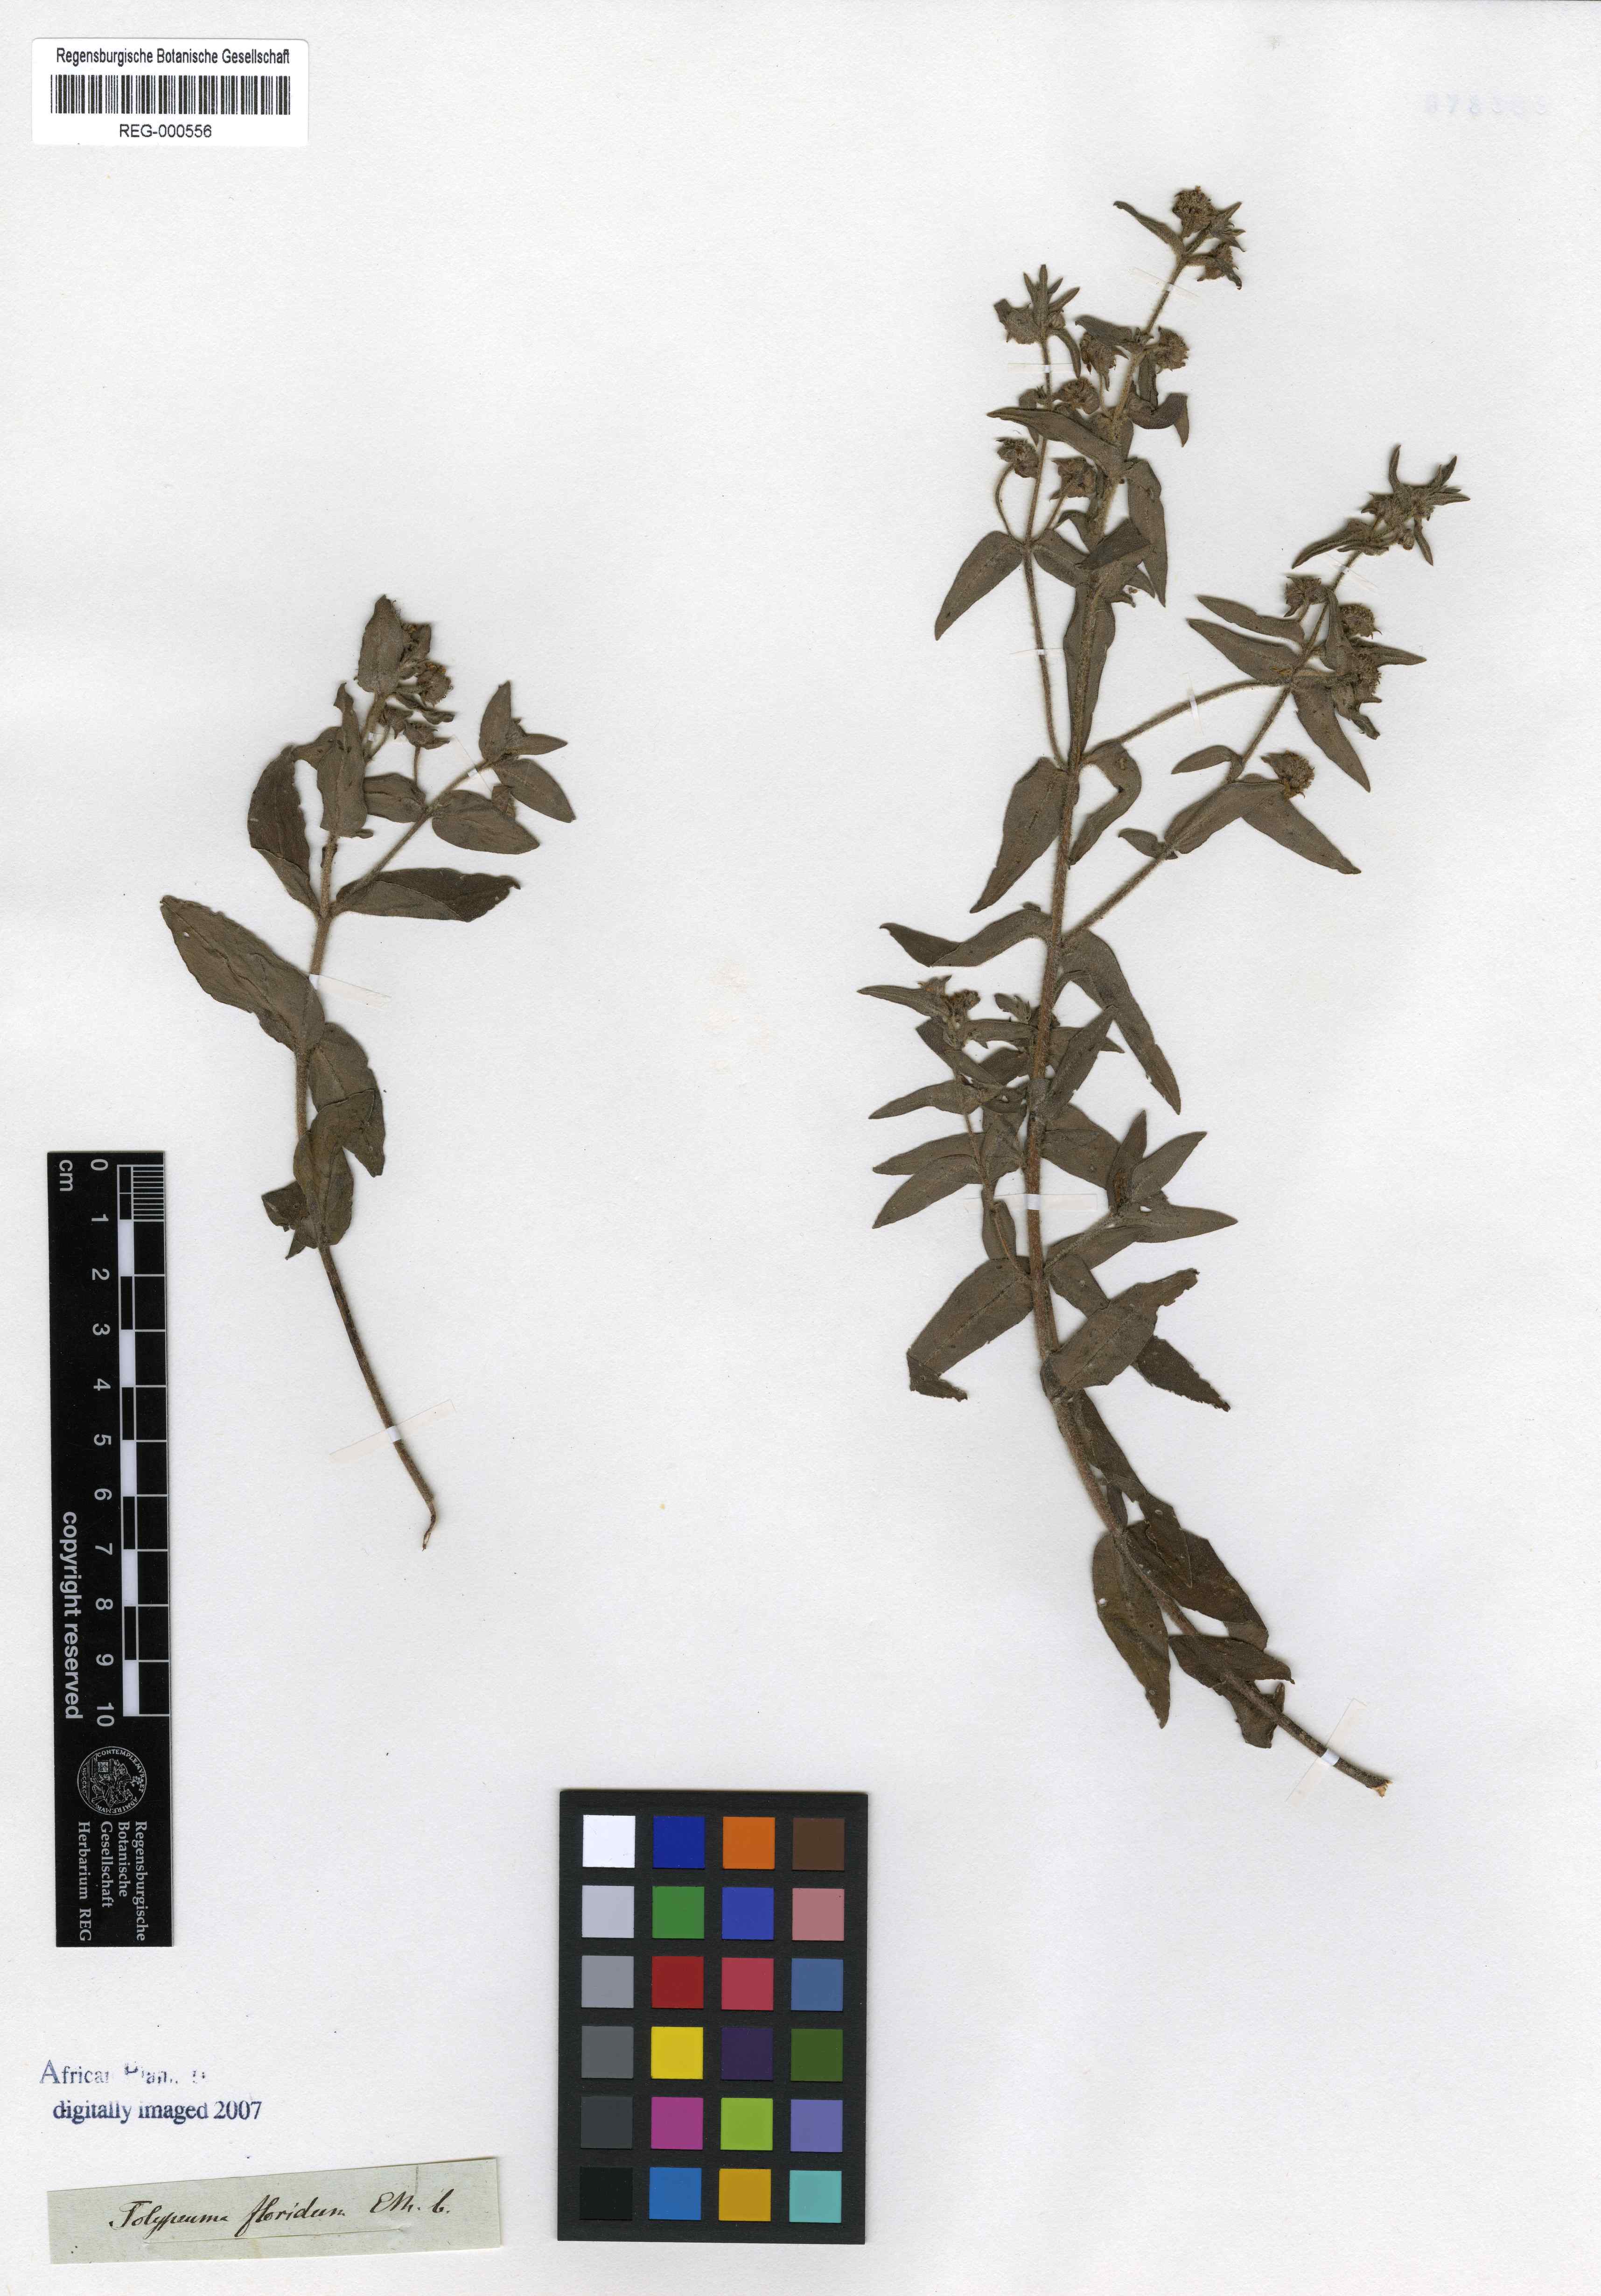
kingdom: Plantae
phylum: Tracheophyta
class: Magnoliopsida
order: Myrtales
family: Lythraceae
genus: Ammannia
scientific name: Ammannia radicans
